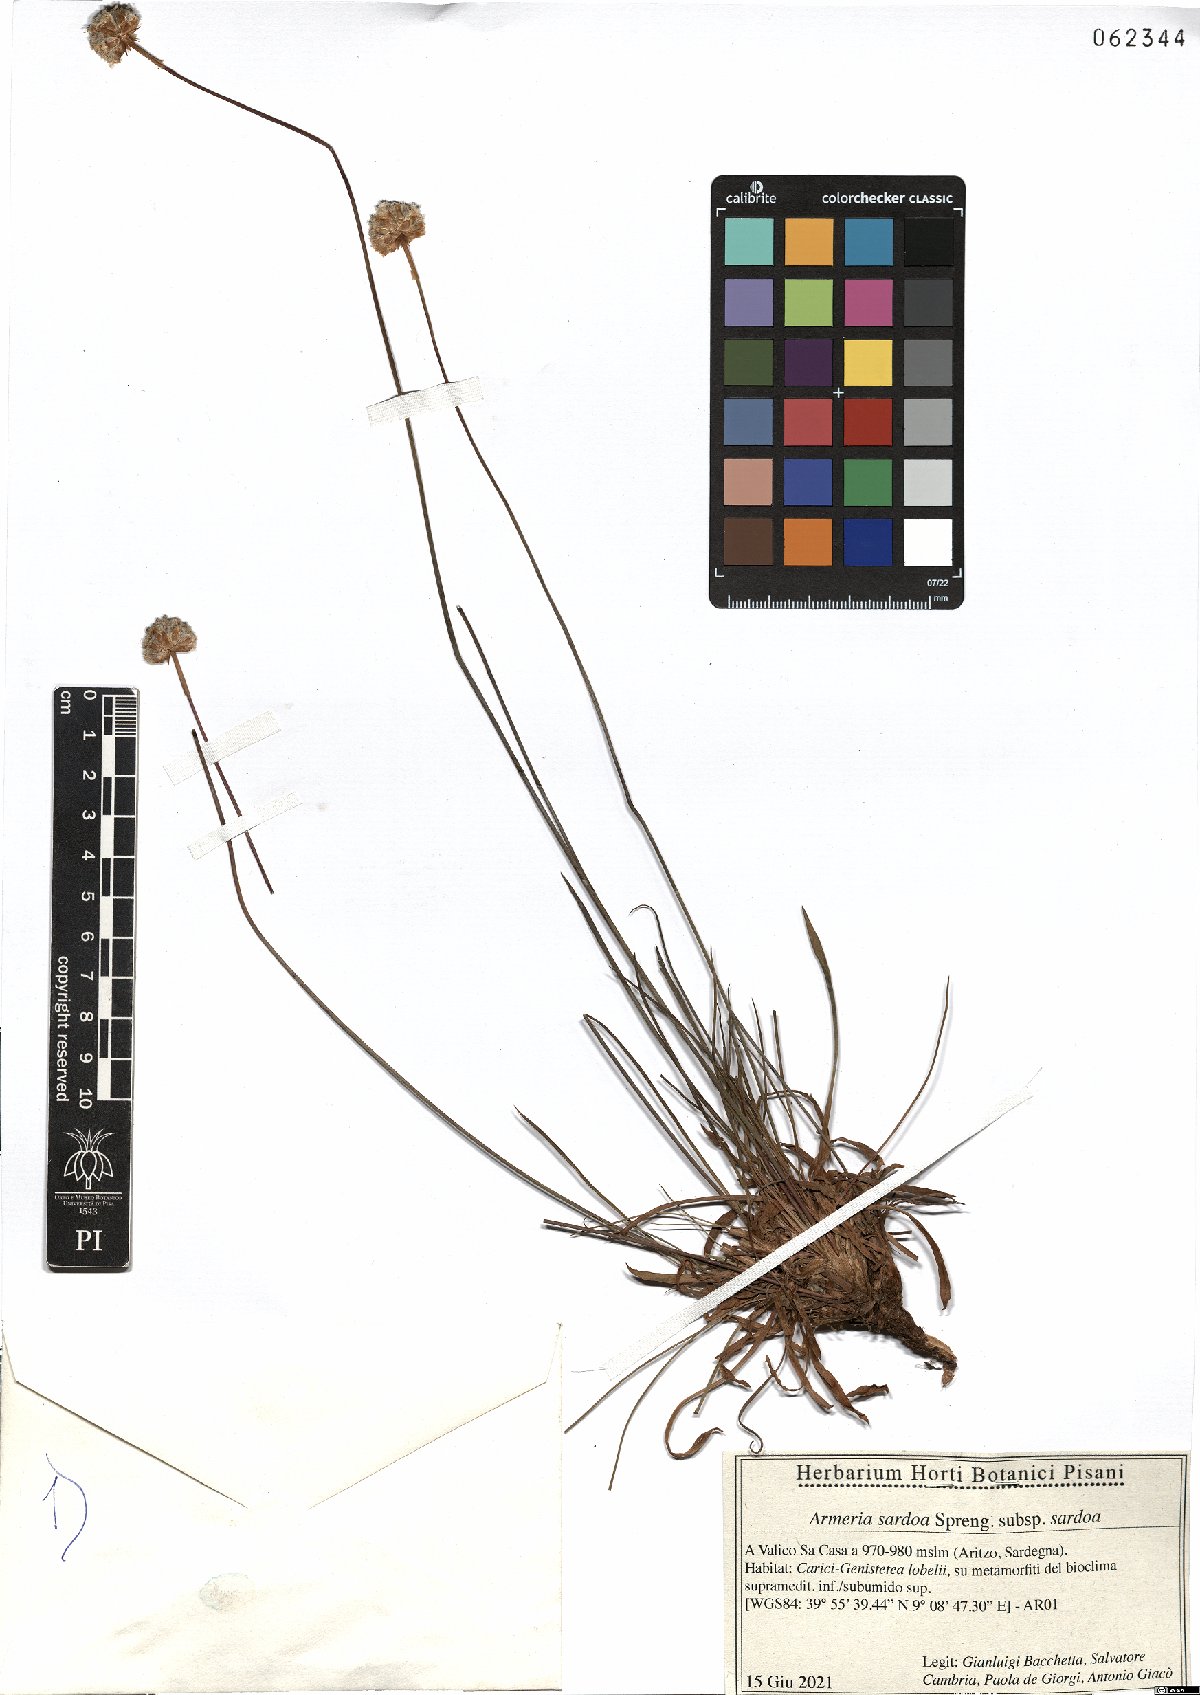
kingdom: Plantae
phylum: Tracheophyta
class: Magnoliopsida
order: Caryophyllales
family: Plumbaginaceae
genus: Armeria
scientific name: Armeria sardoa
